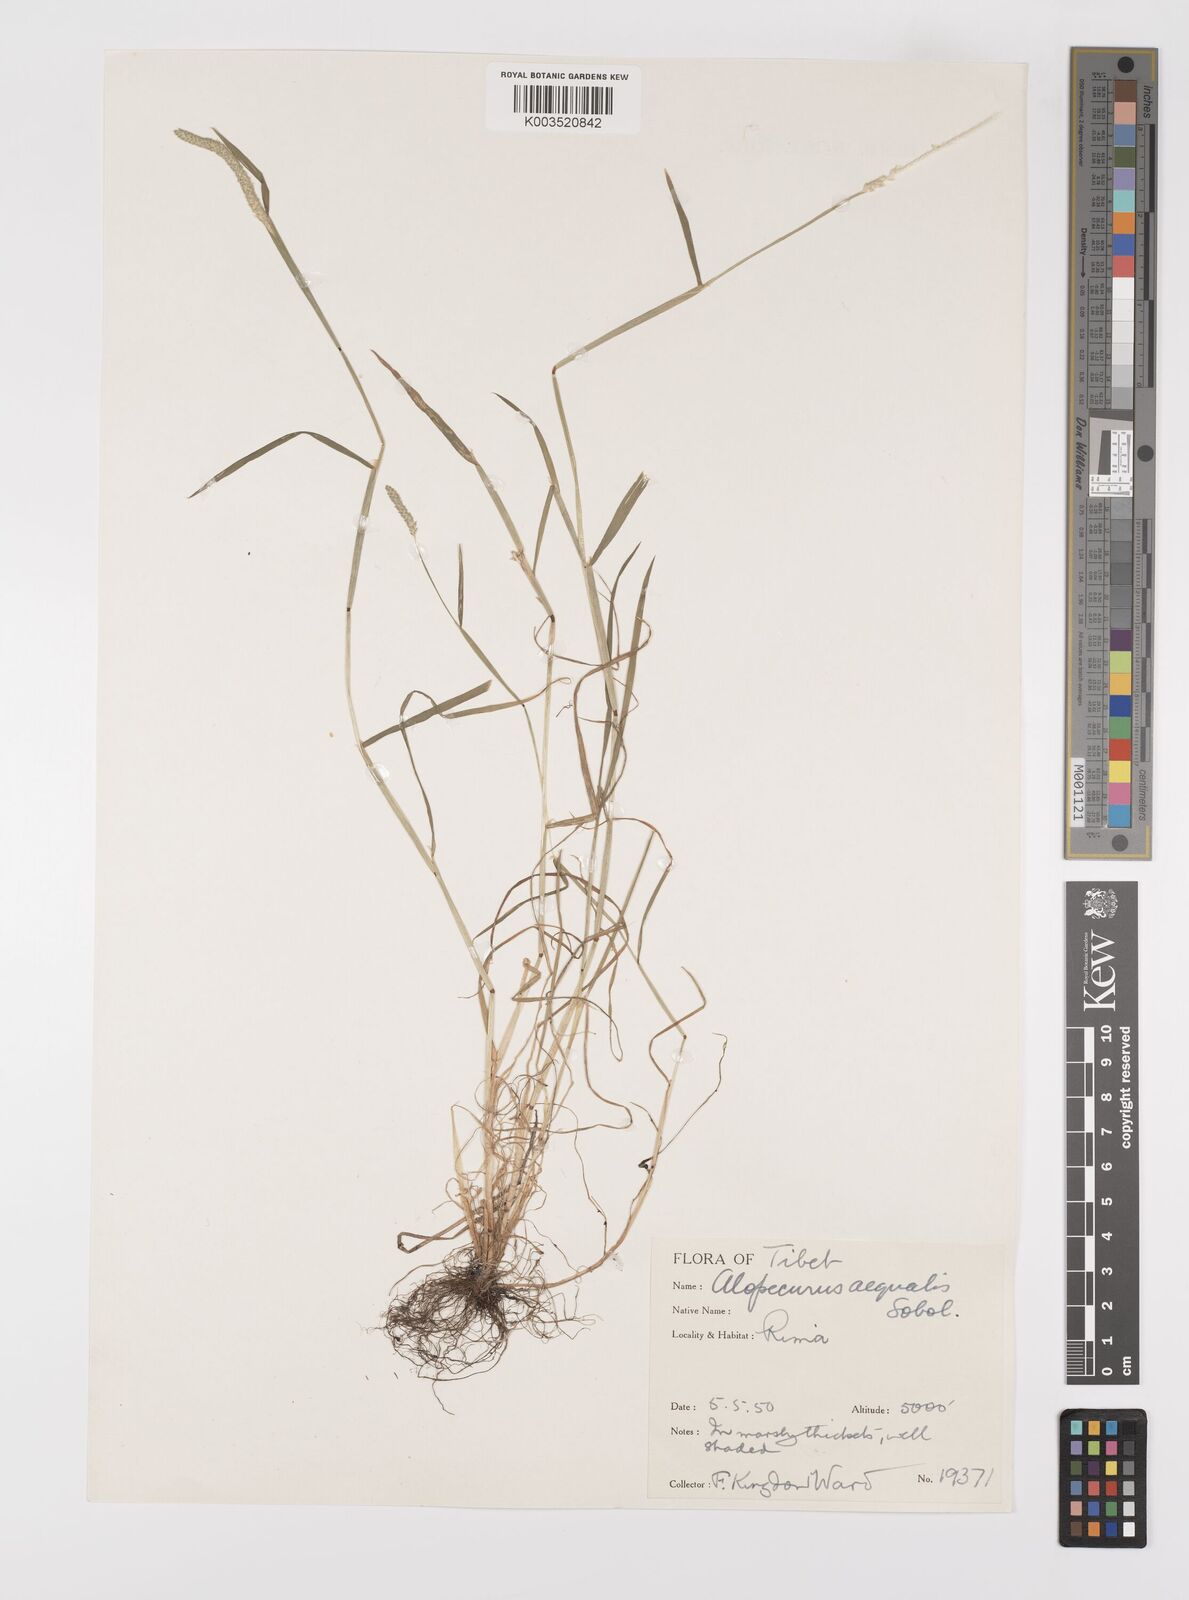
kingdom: Plantae
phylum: Tracheophyta
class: Liliopsida
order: Poales
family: Poaceae
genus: Alopecurus
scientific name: Alopecurus aequalis
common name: Orange foxtail
